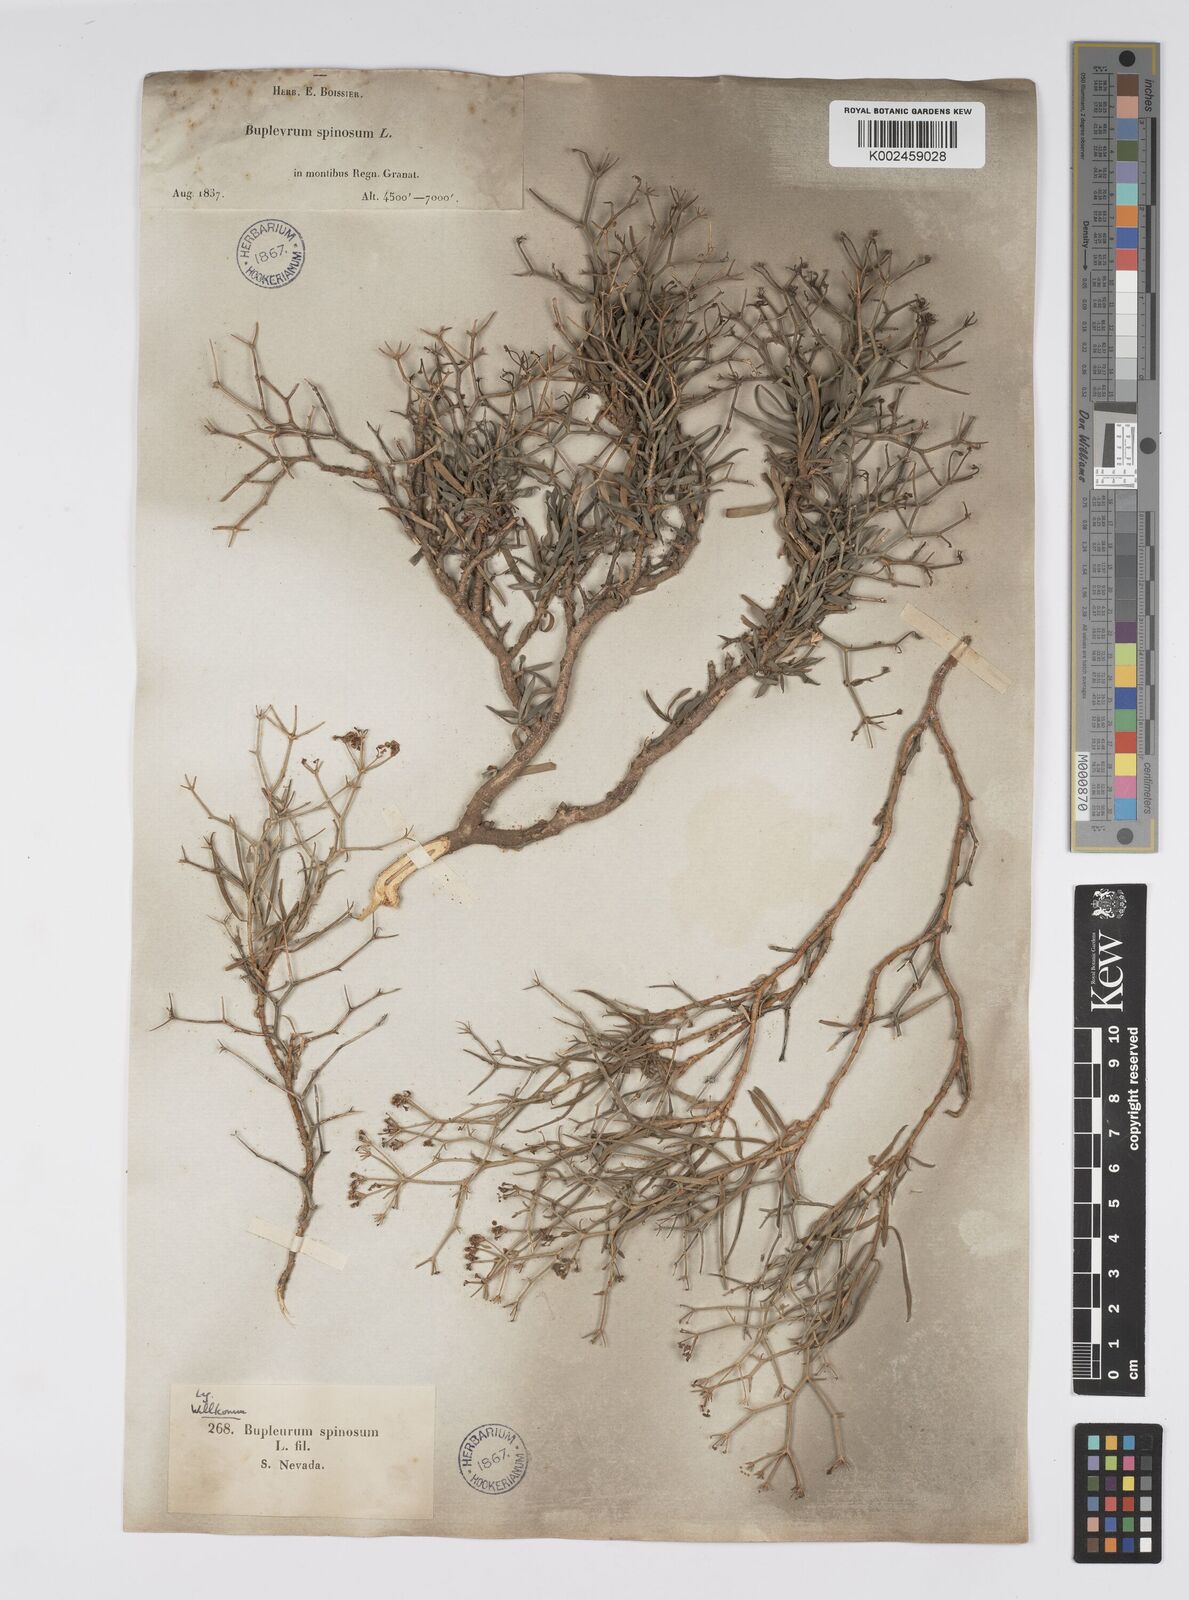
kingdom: Plantae
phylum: Tracheophyta
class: Magnoliopsida
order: Apiales
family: Apiaceae
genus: Bupleurum
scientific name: Bupleurum fruticescens
